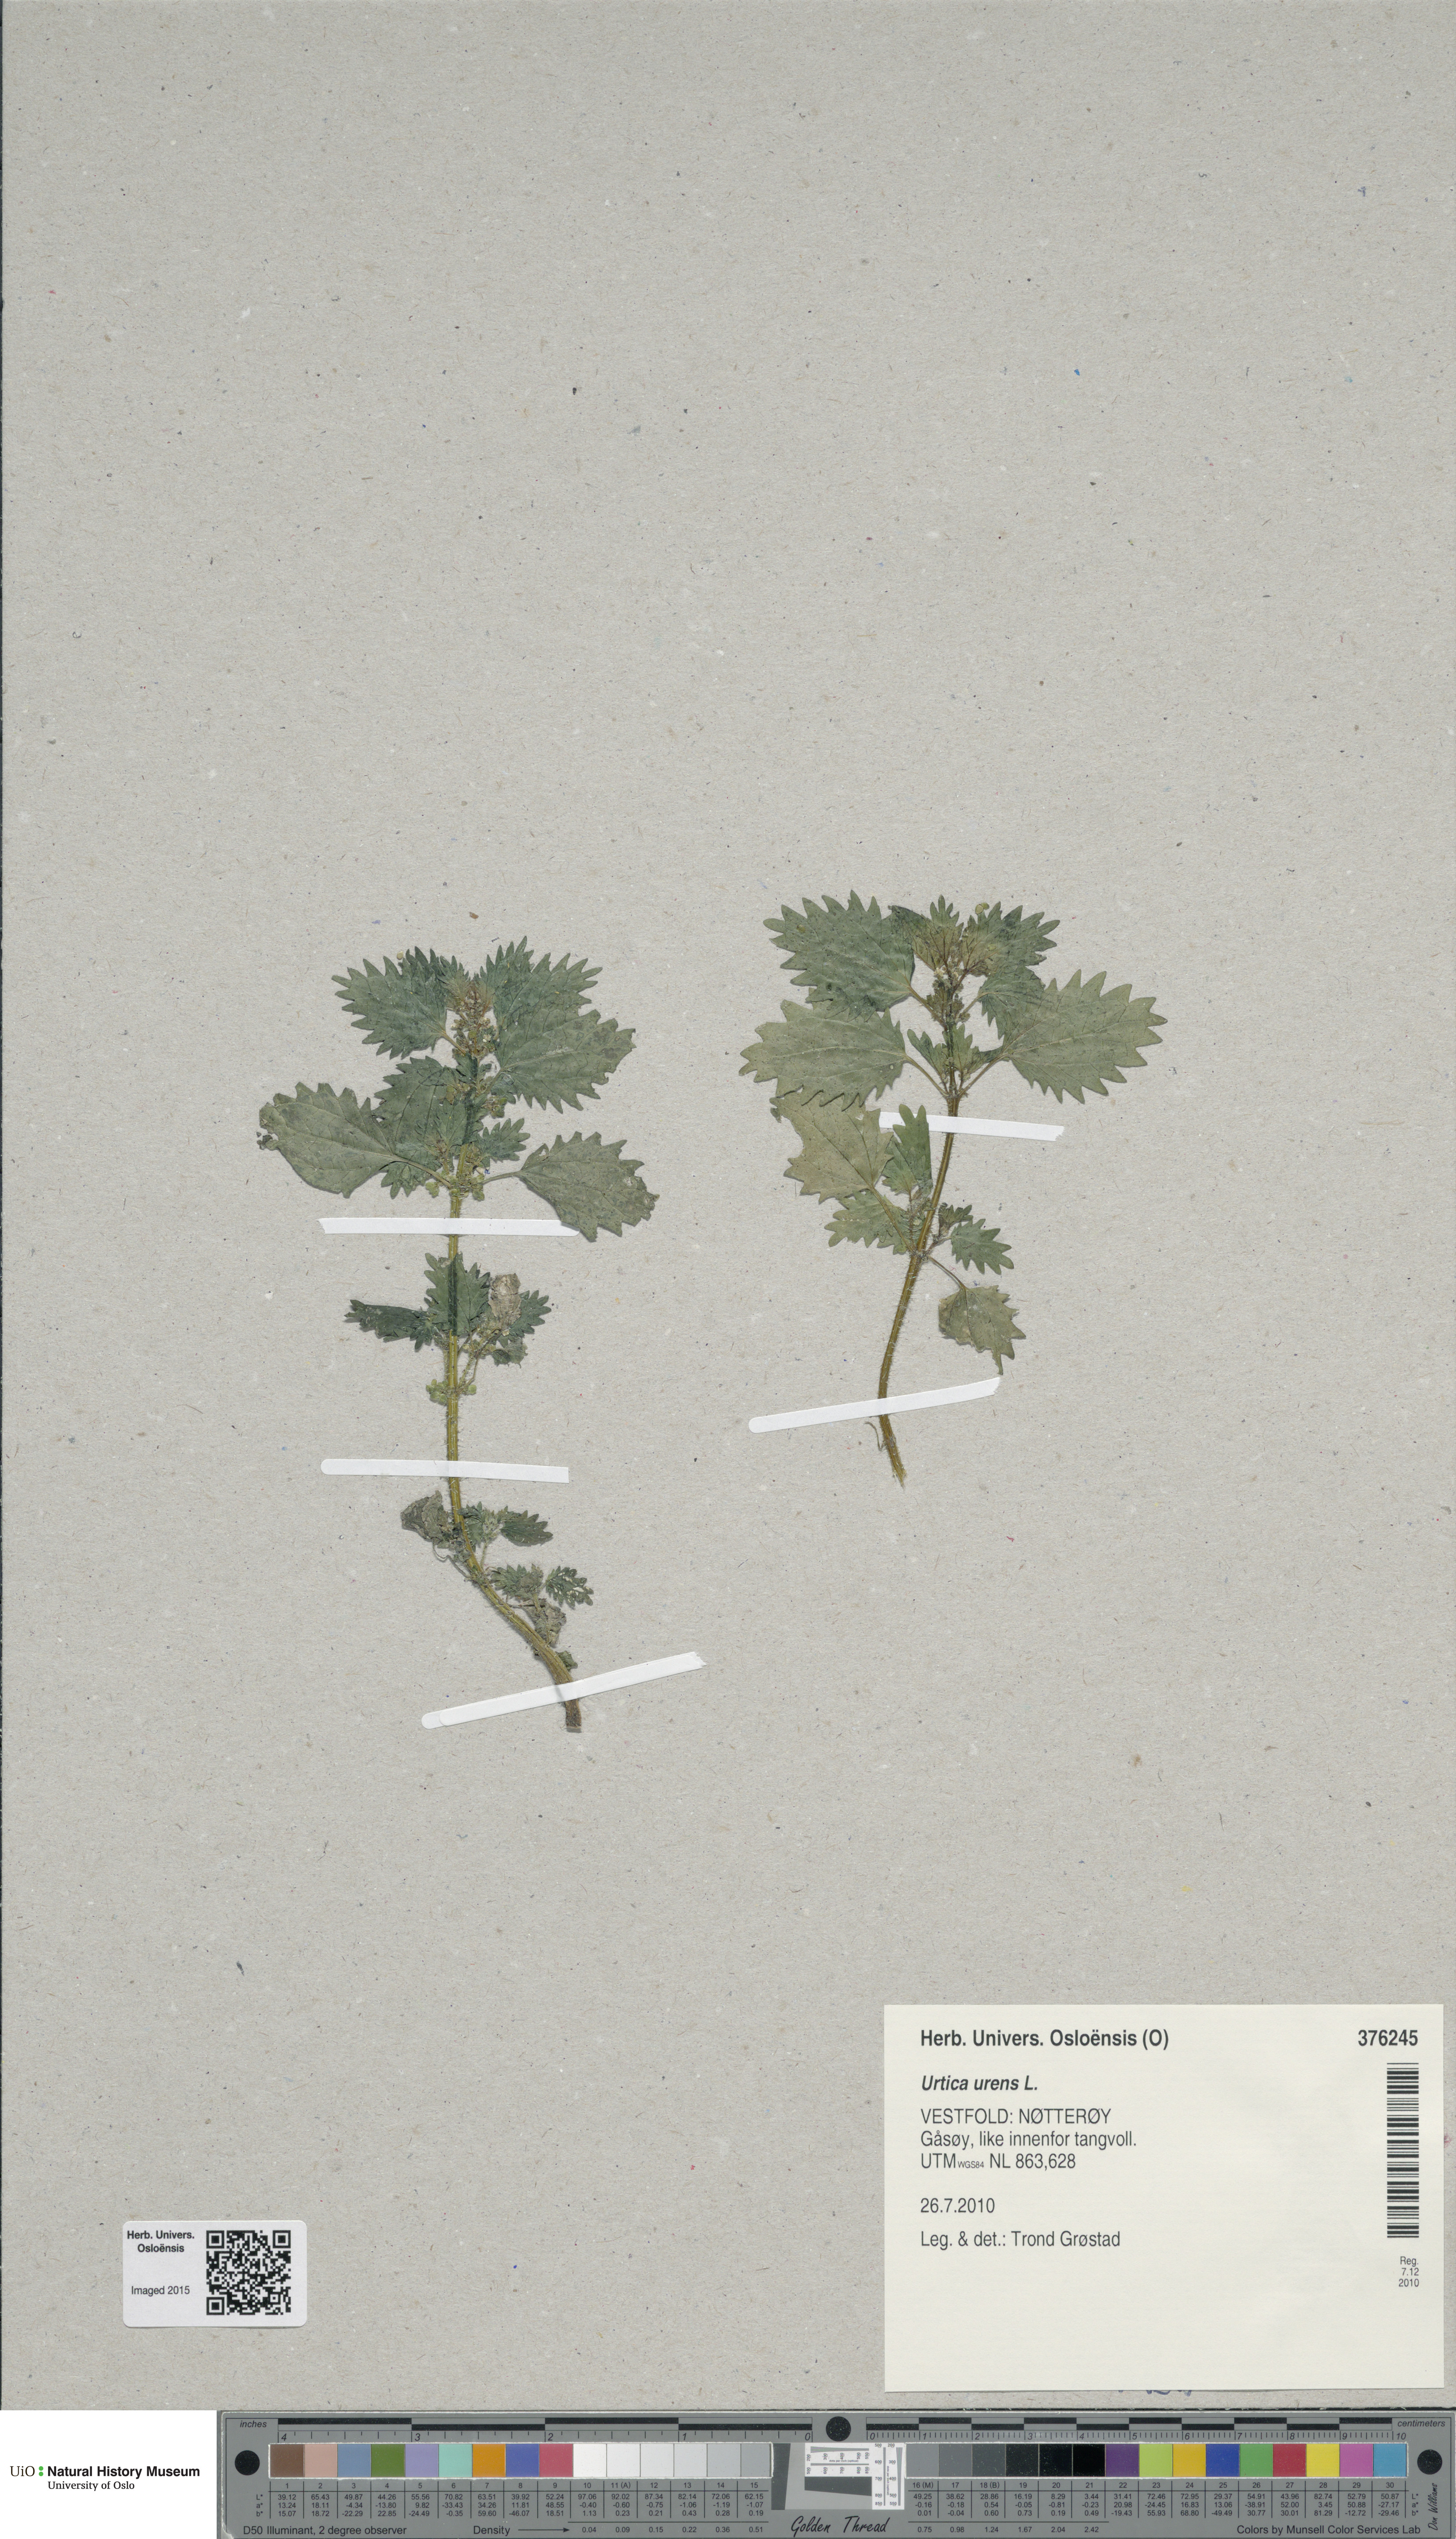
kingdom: Plantae
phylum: Tracheophyta
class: Magnoliopsida
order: Rosales
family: Urticaceae
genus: Urtica
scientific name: Urtica urens
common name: Dwarf nettle
